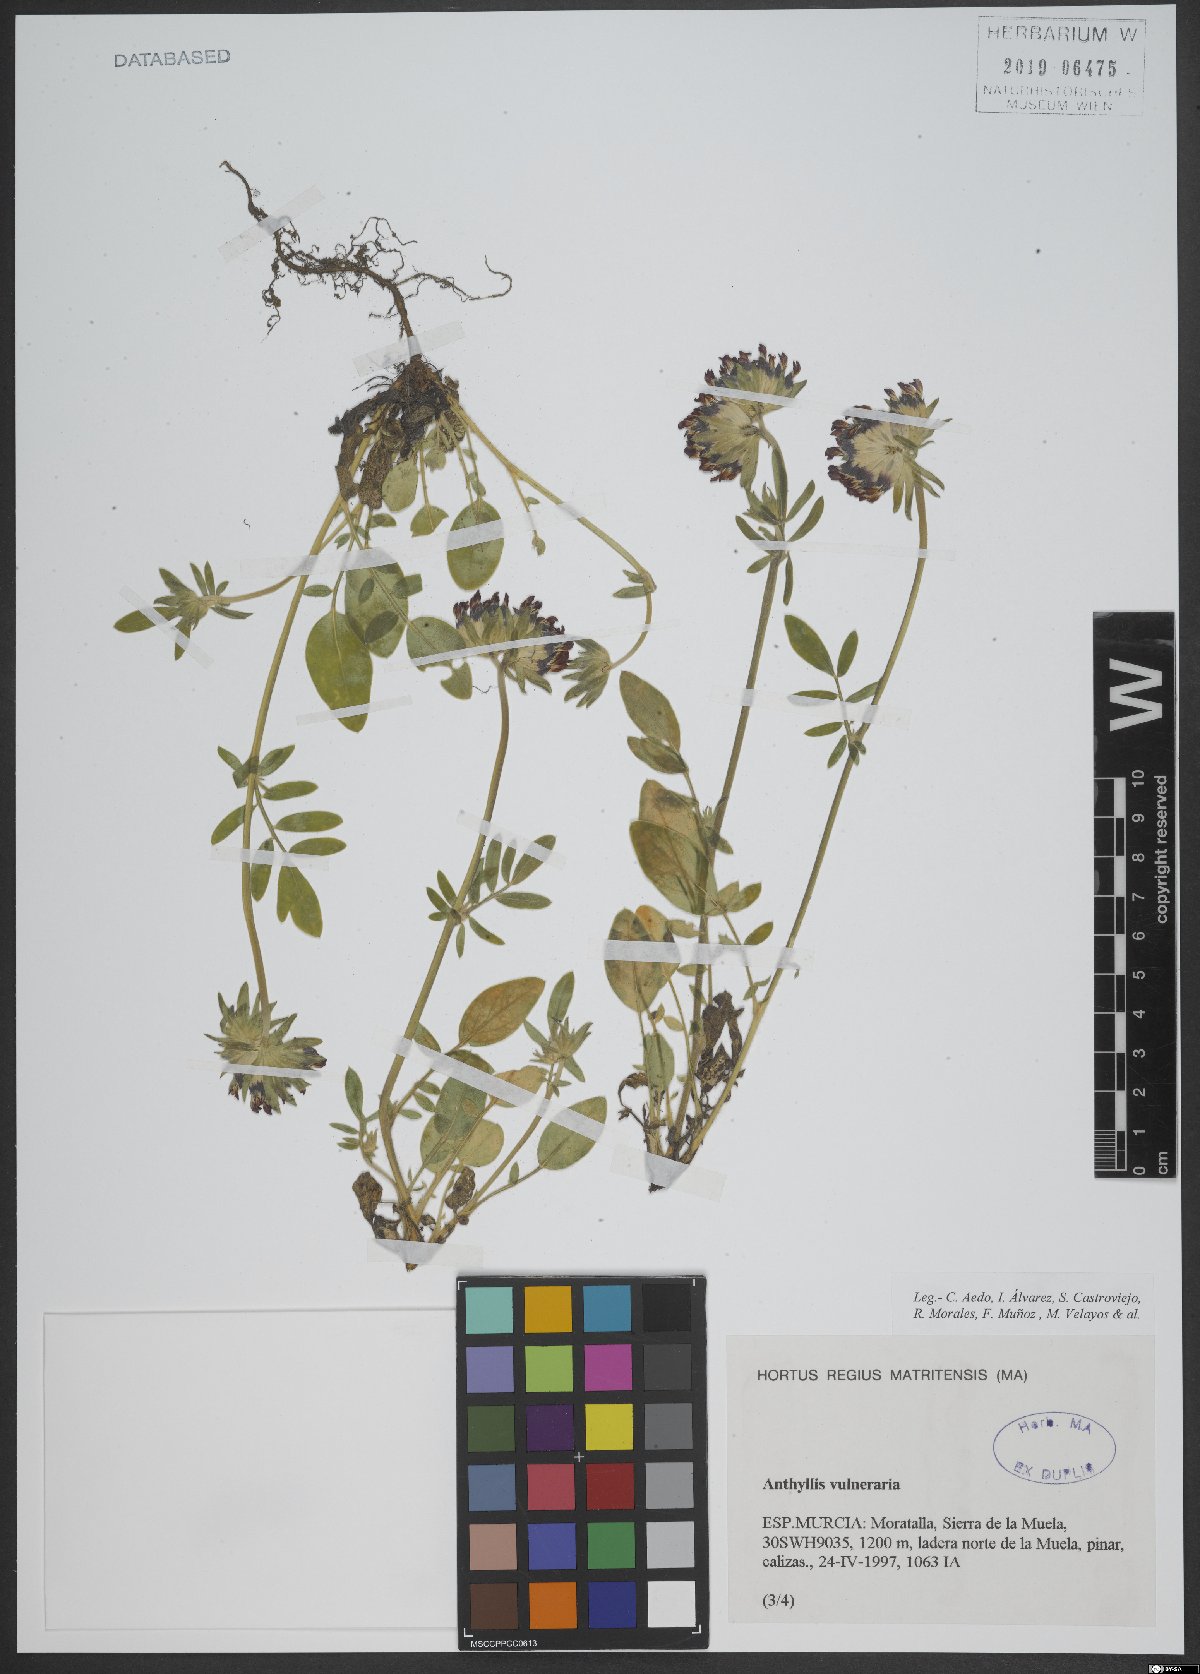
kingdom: Plantae
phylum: Tracheophyta
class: Magnoliopsida
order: Fabales
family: Fabaceae
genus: Anthyllis
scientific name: Anthyllis vulneraria
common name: Kidney vetch
